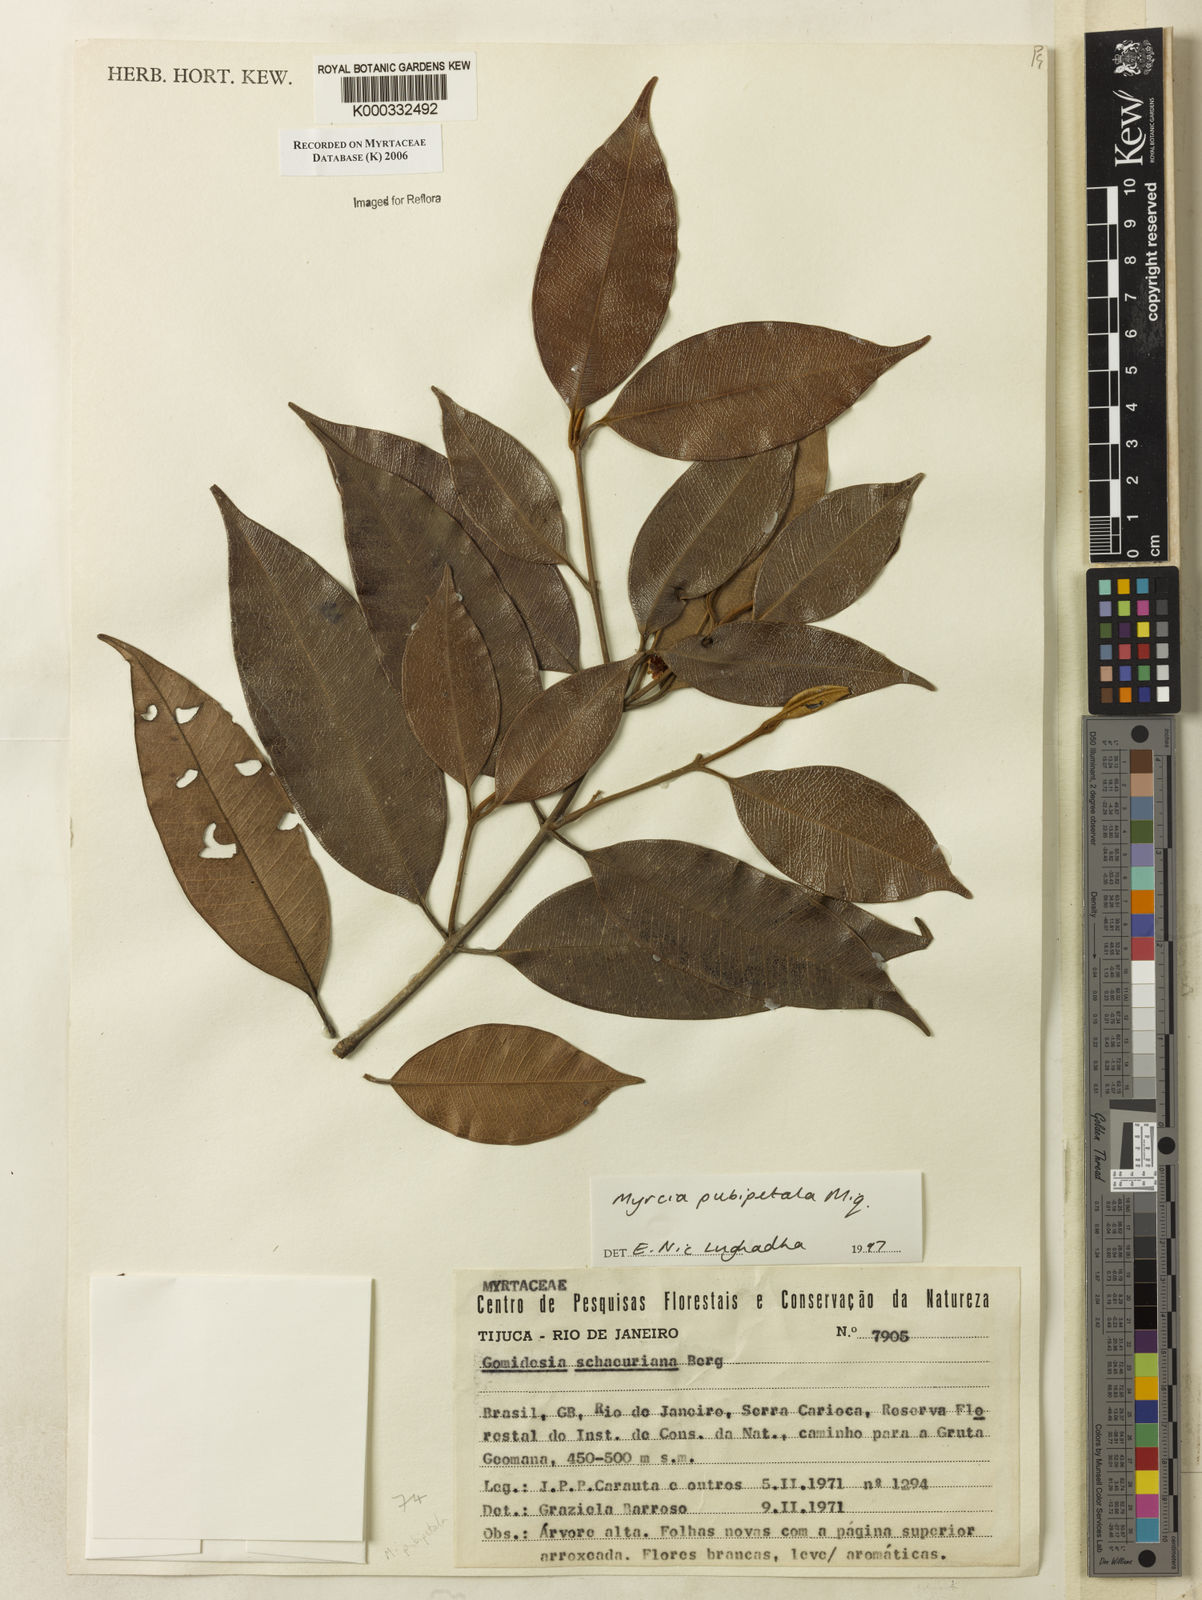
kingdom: Plantae
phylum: Tracheophyta
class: Magnoliopsida
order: Myrtales
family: Myrtaceae
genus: Myrcia
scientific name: Myrcia pubipetala
